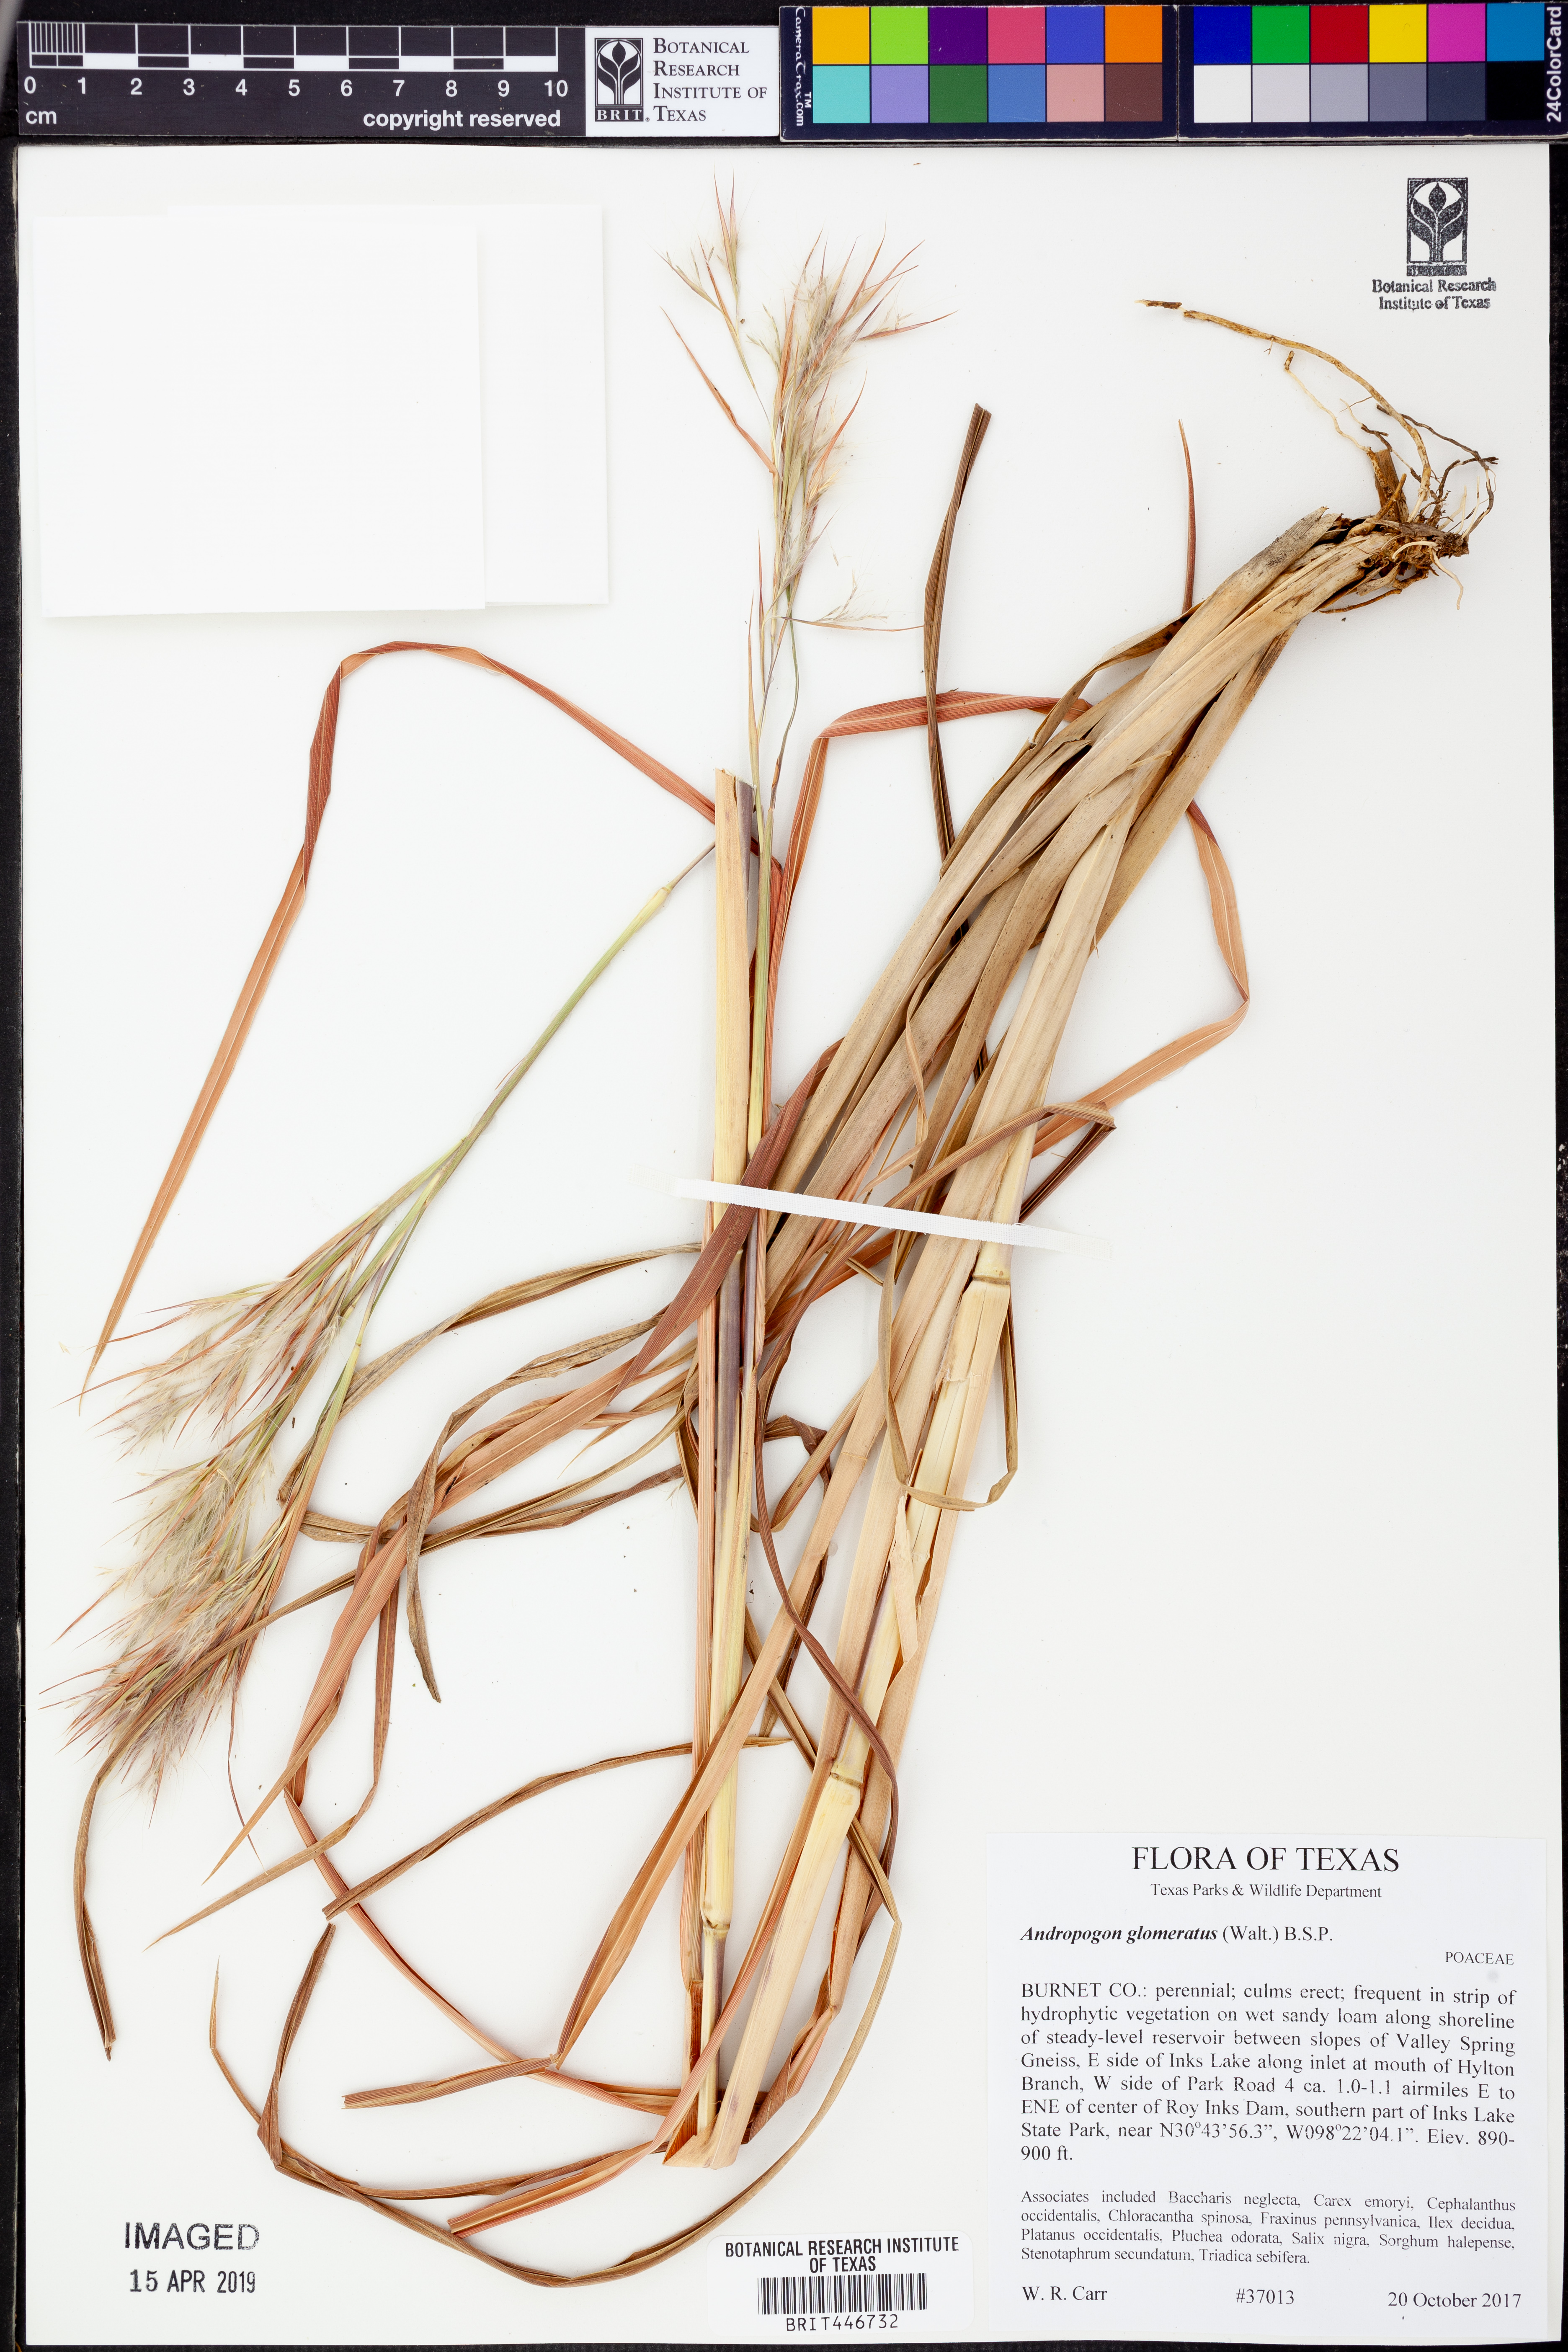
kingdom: Plantae
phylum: Tracheophyta
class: Liliopsida
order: Poales
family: Poaceae
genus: Andropogon
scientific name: Andropogon glomeratus
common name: Bushy beard grass
